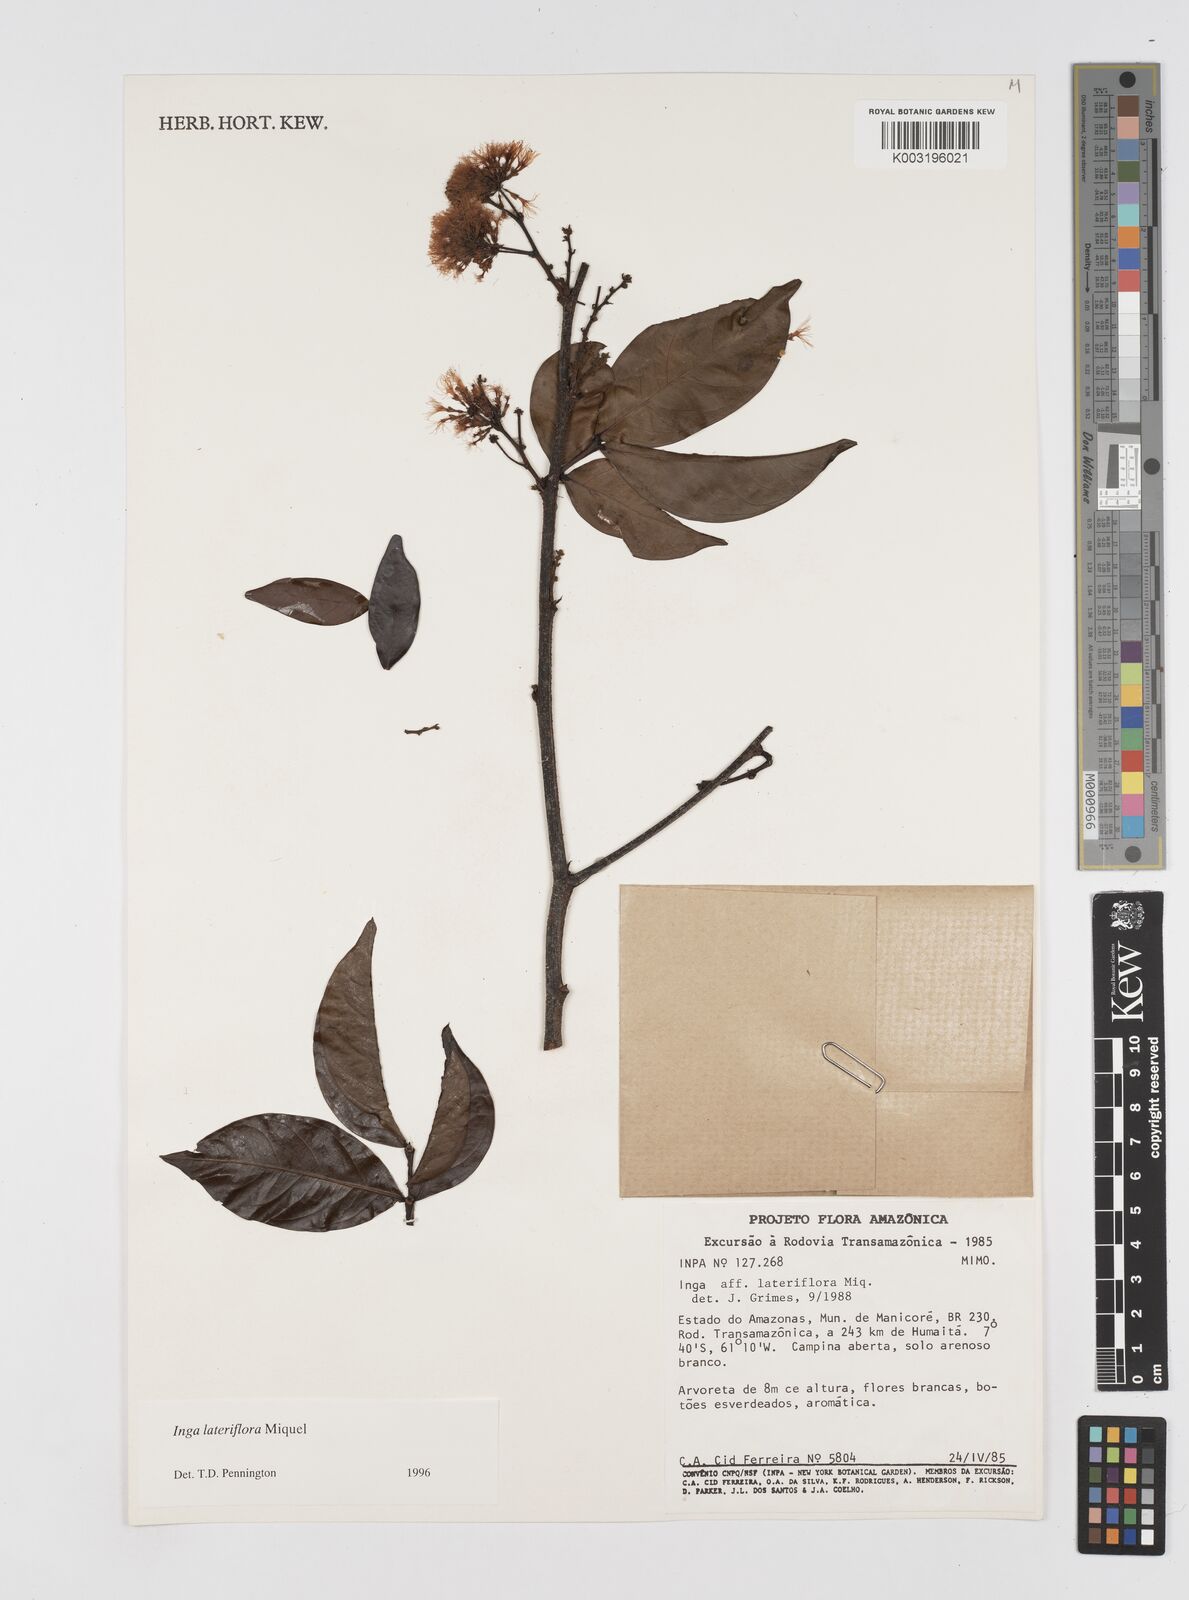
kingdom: Plantae
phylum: Tracheophyta
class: Magnoliopsida
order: Fabales
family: Fabaceae
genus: Inga
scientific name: Inga lateriflora
